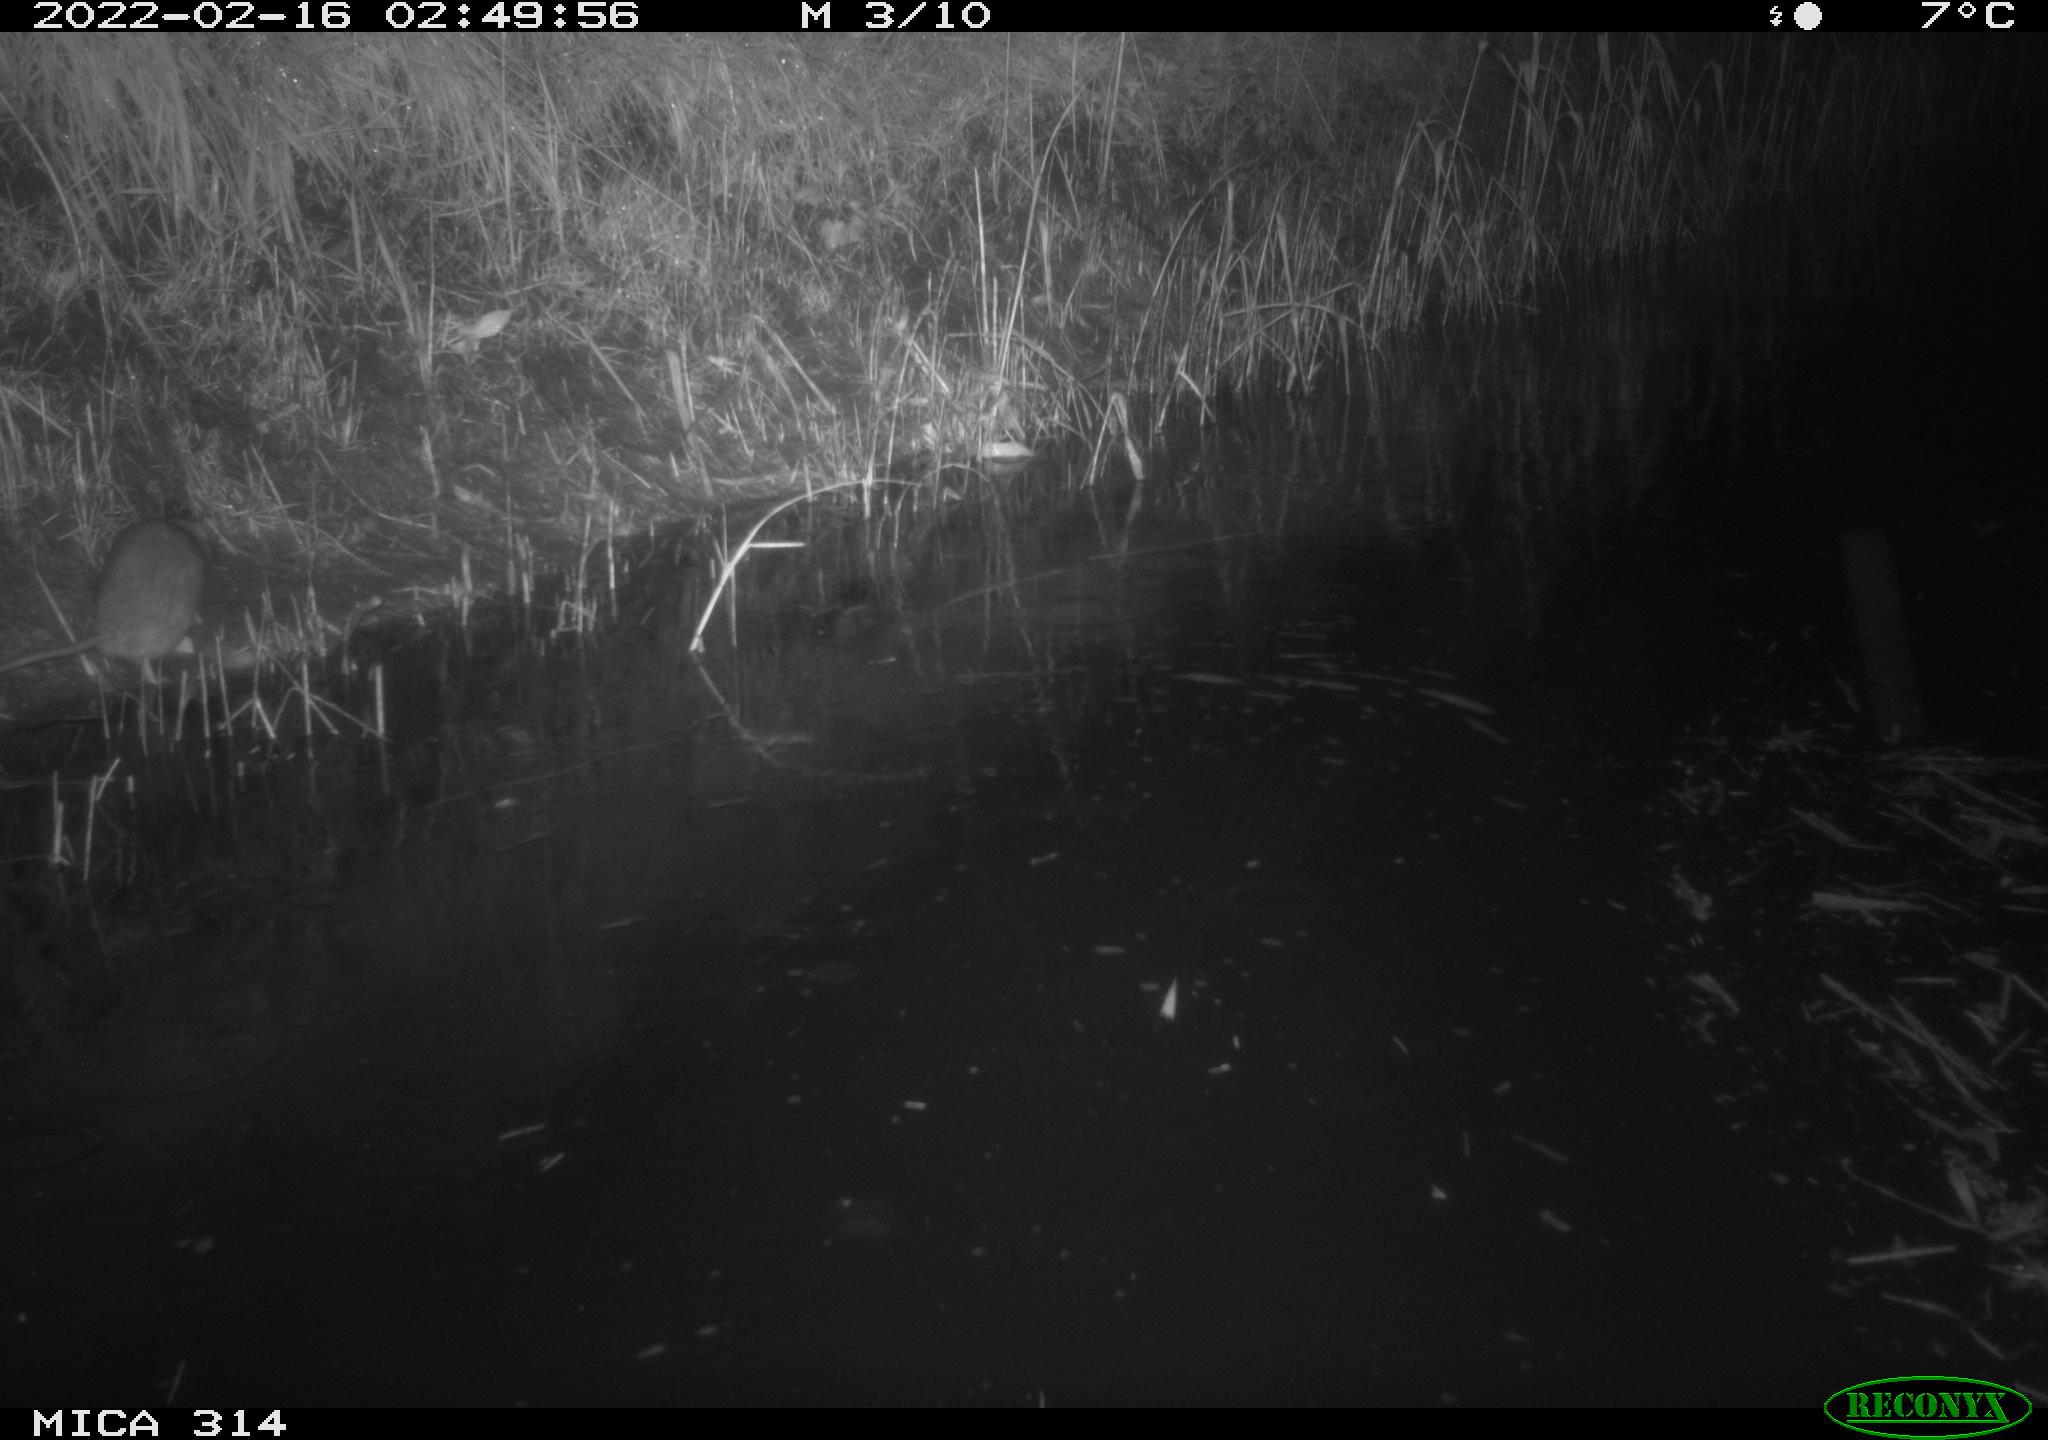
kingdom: Animalia
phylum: Chordata
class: Mammalia
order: Rodentia
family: Muridae
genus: Rattus
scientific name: Rattus norvegicus
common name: Brown rat
